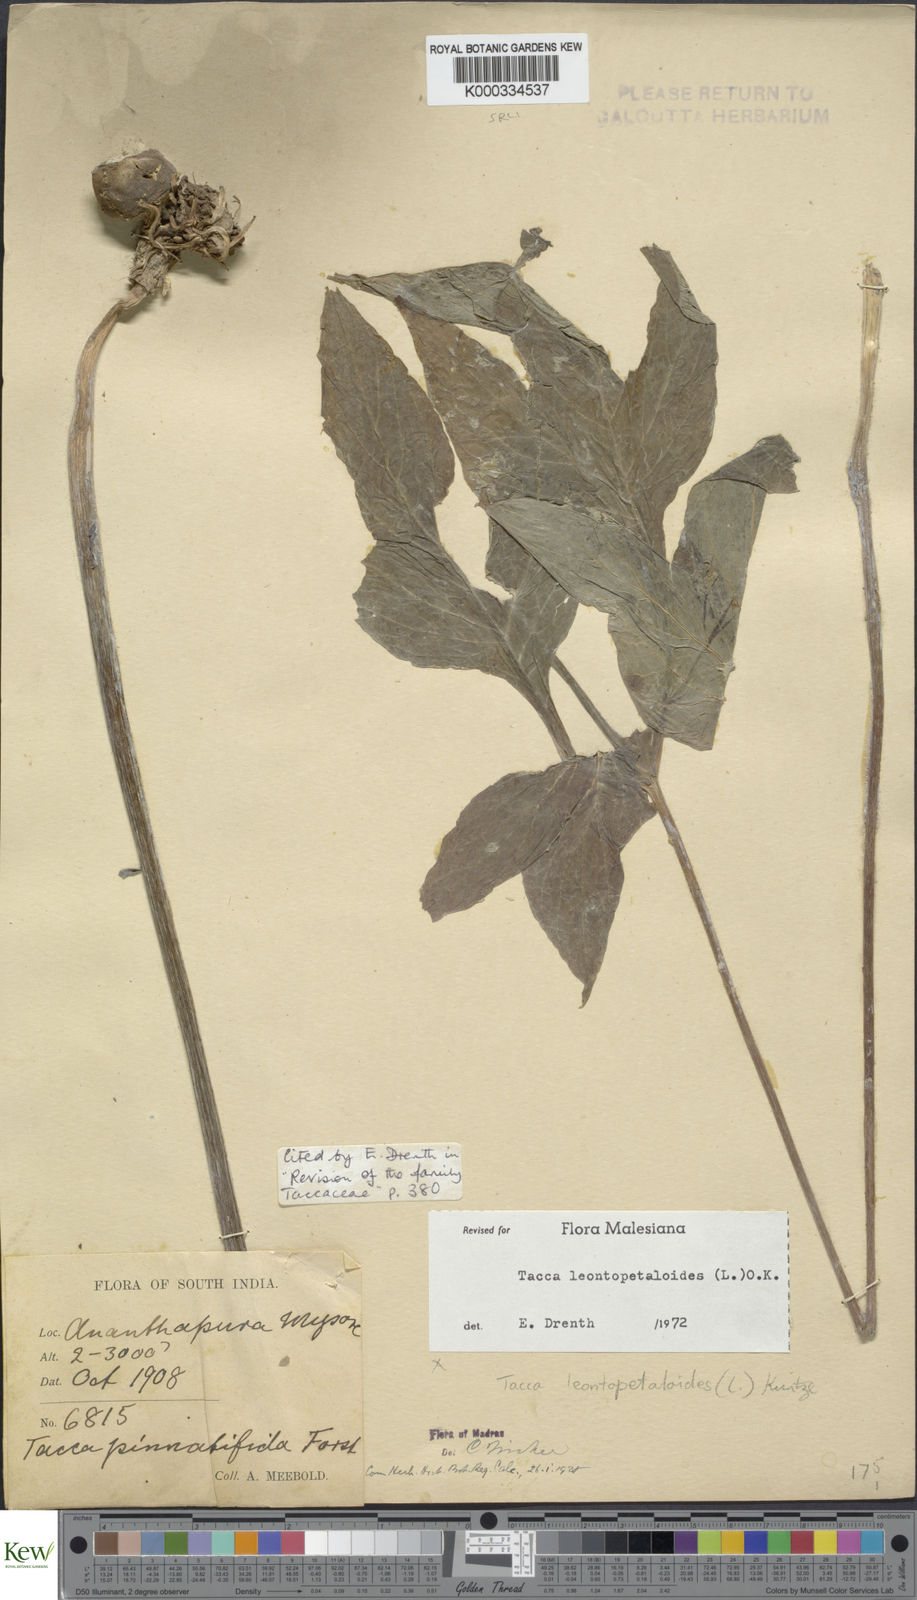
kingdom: Plantae
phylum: Tracheophyta
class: Liliopsida
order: Dioscoreales
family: Dioscoreaceae
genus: Tacca
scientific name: Tacca leontopetaloides
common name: Arrowroot
